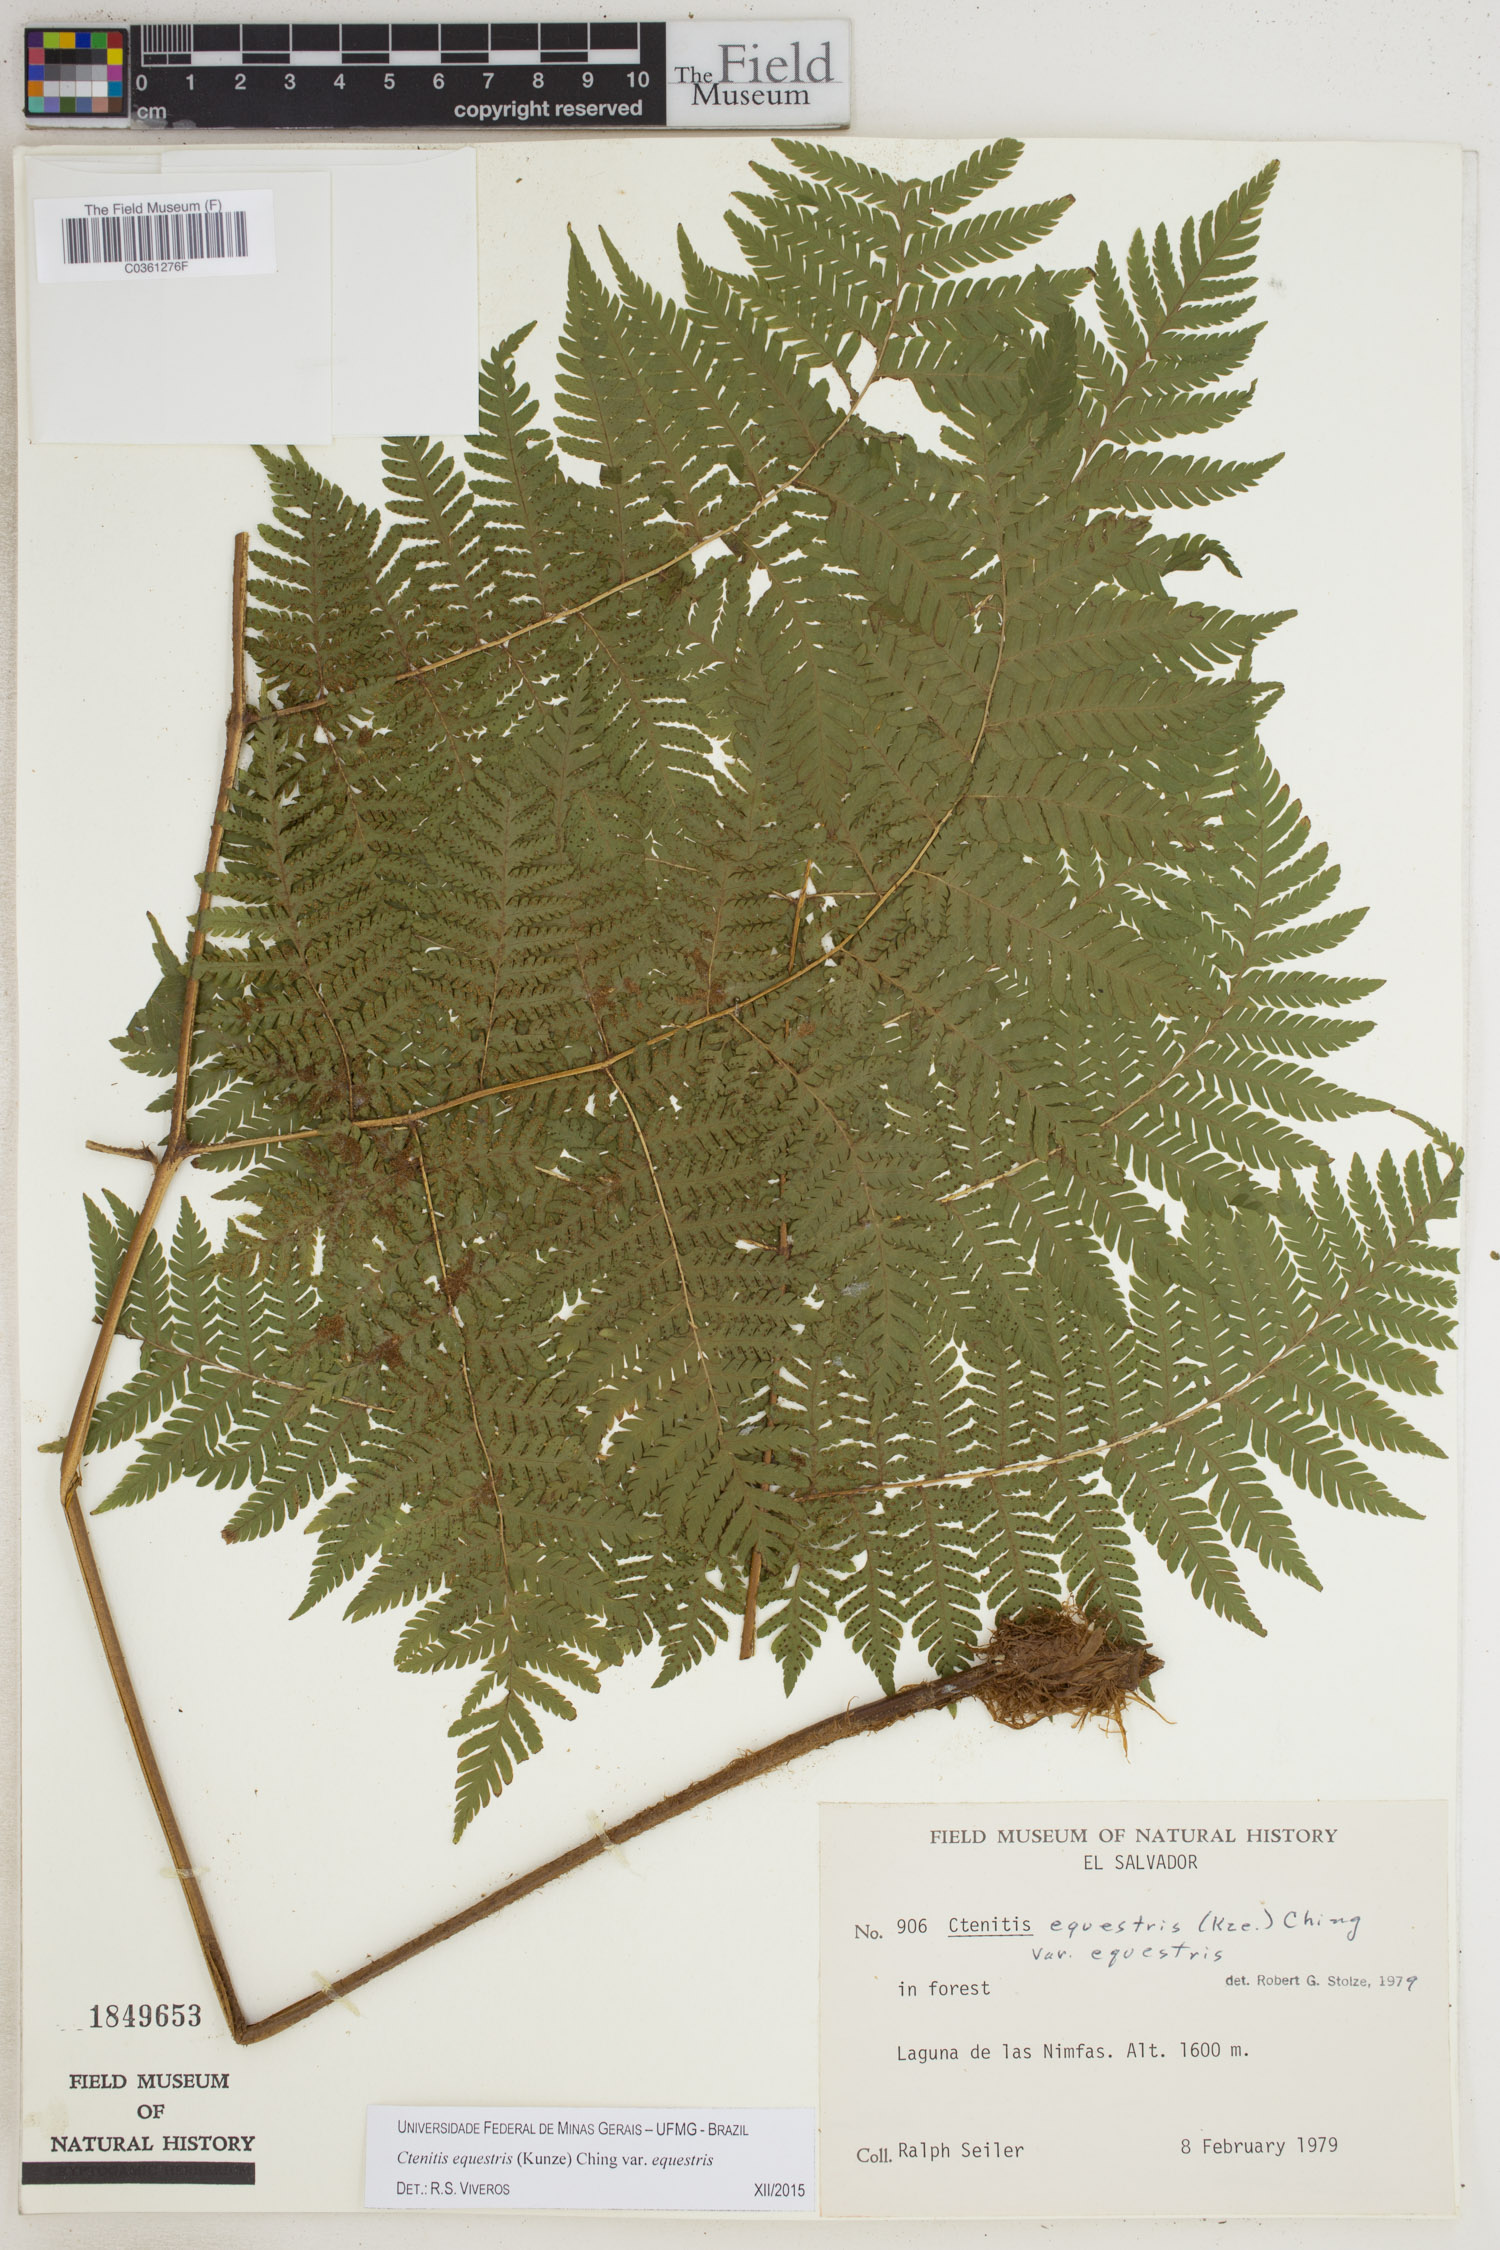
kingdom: Plantae
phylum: Tracheophyta
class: Polypodiopsida
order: Polypodiales
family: Dryopteridaceae
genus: Ctenitis
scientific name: Ctenitis equestris
